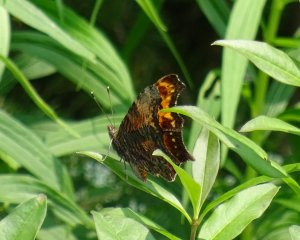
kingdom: Animalia
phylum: Arthropoda
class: Insecta
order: Lepidoptera
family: Nymphalidae
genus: Polygonia
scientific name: Polygonia progne
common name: Gray Comma
